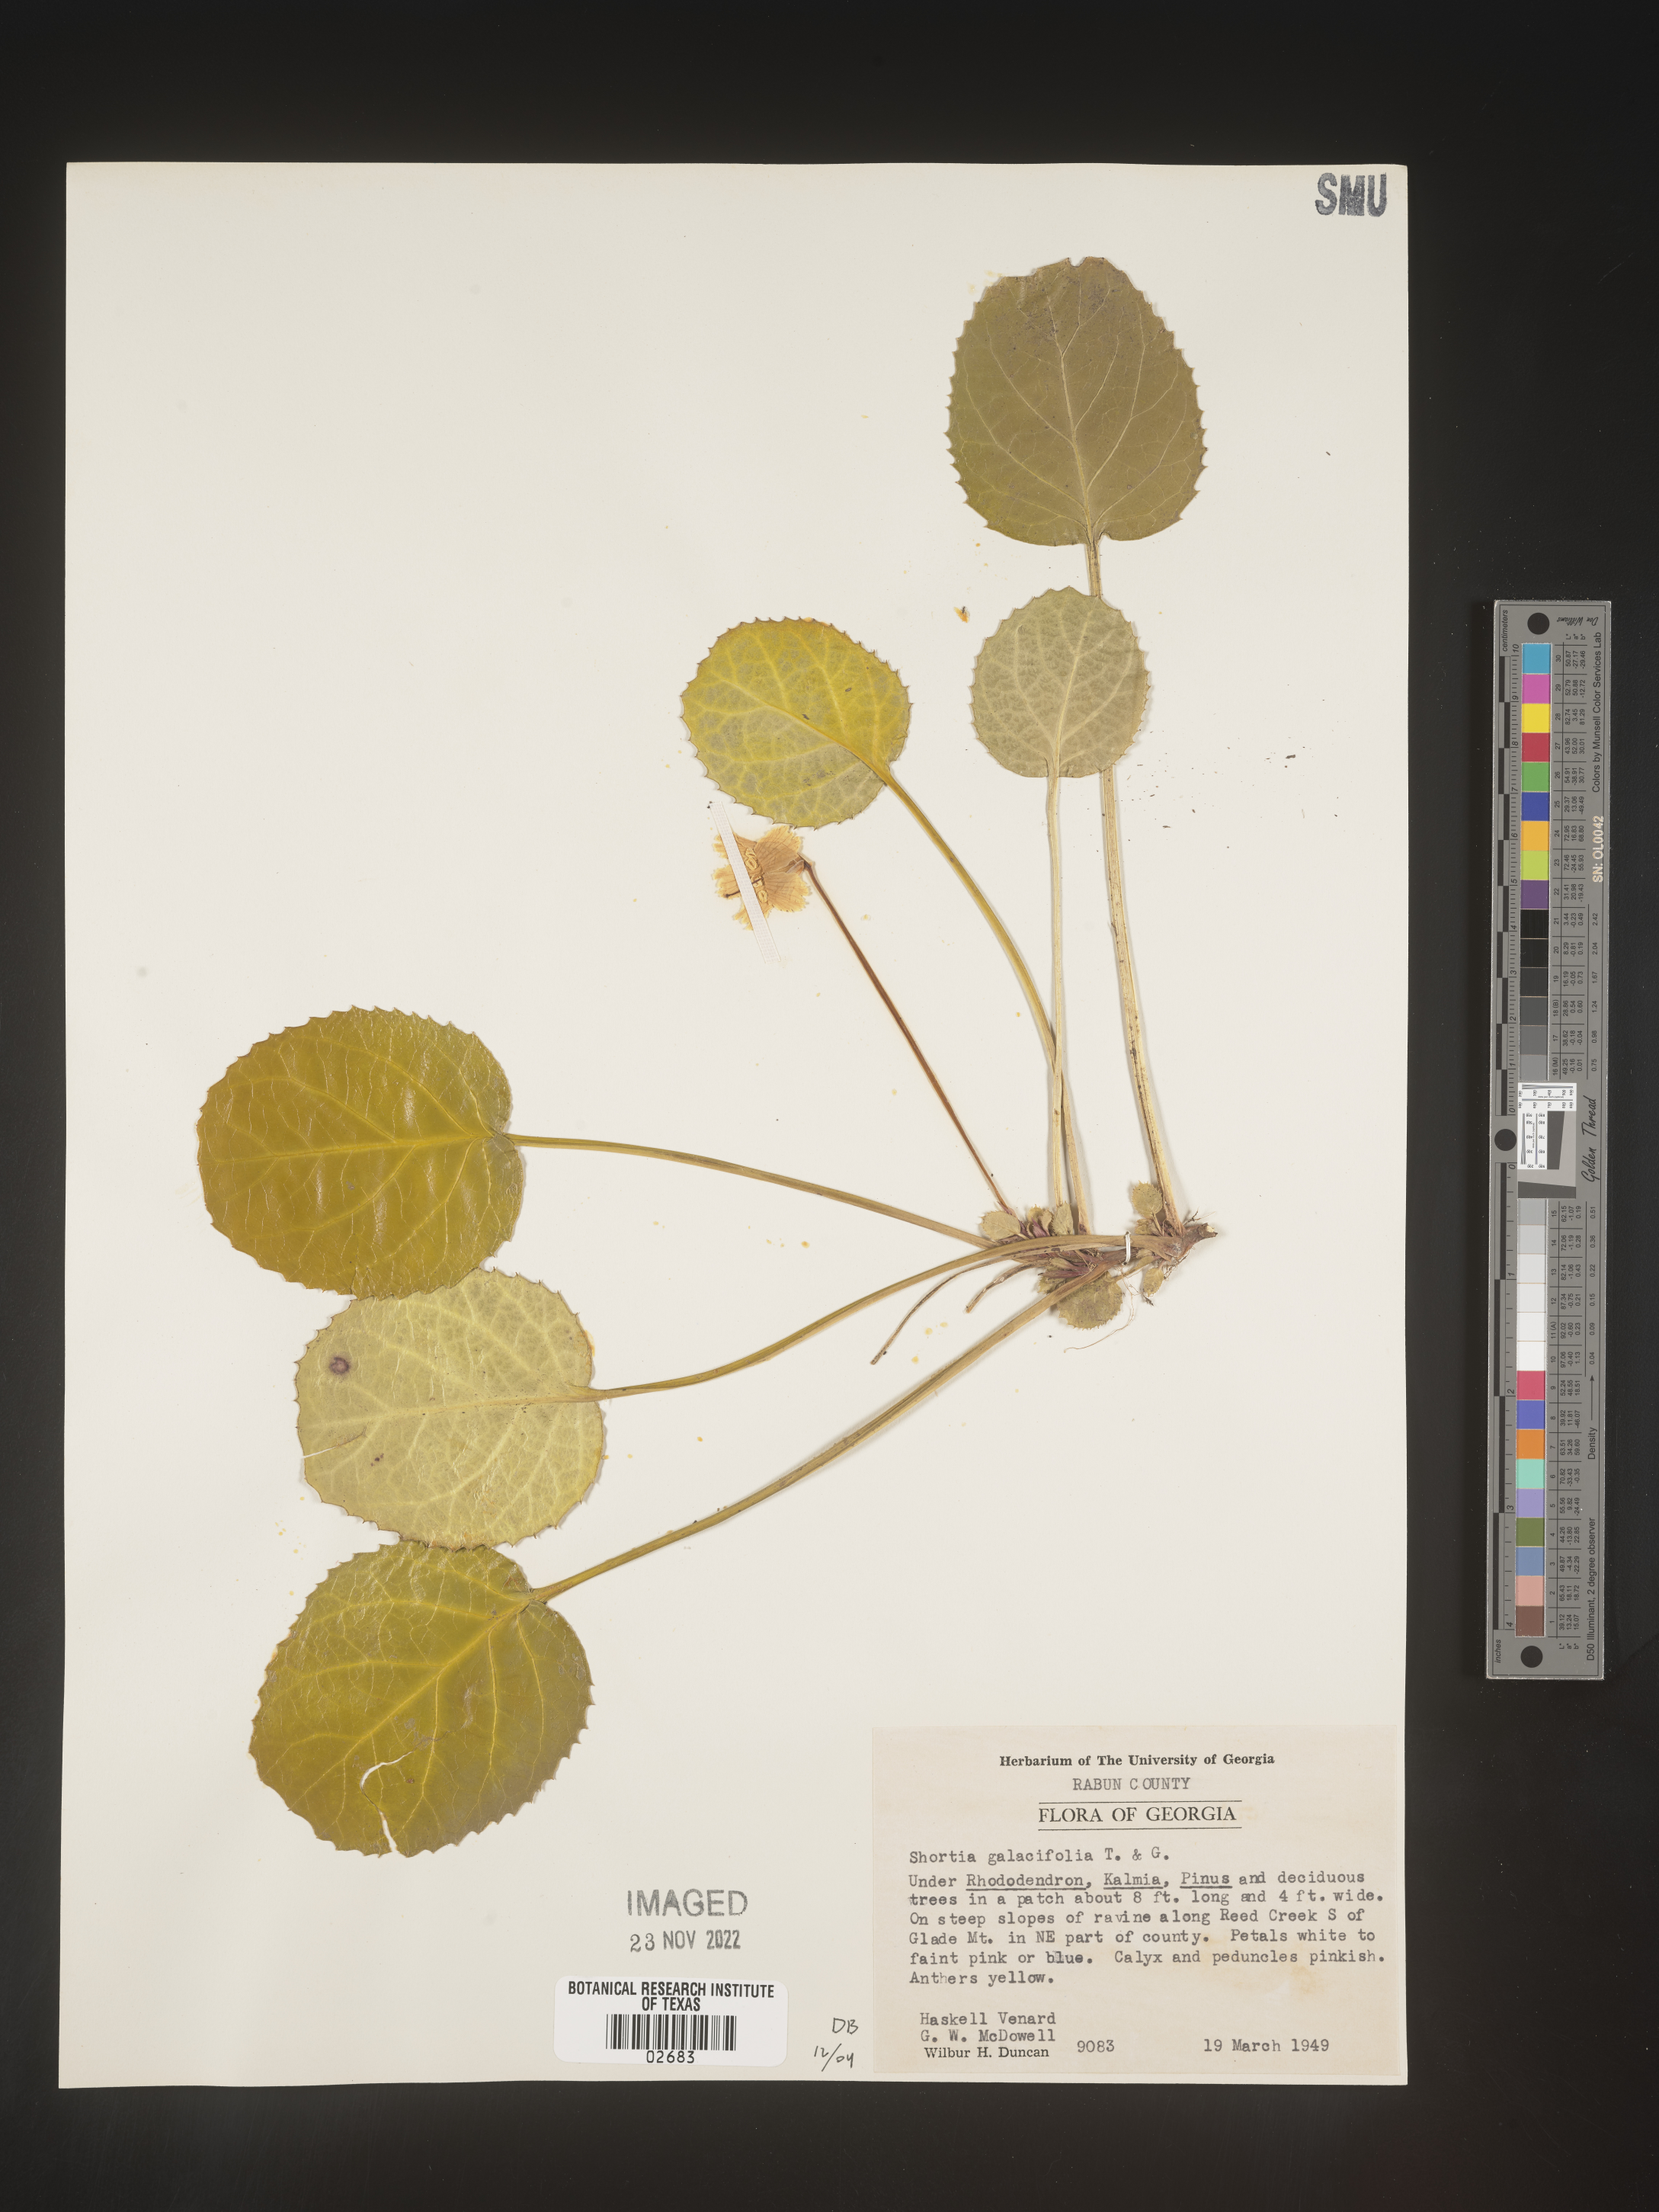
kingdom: Plantae
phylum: Tracheophyta
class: Magnoliopsida
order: Ericales
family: Diapensiaceae
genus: Shortia
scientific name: Shortia galacifolia
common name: Shortia
